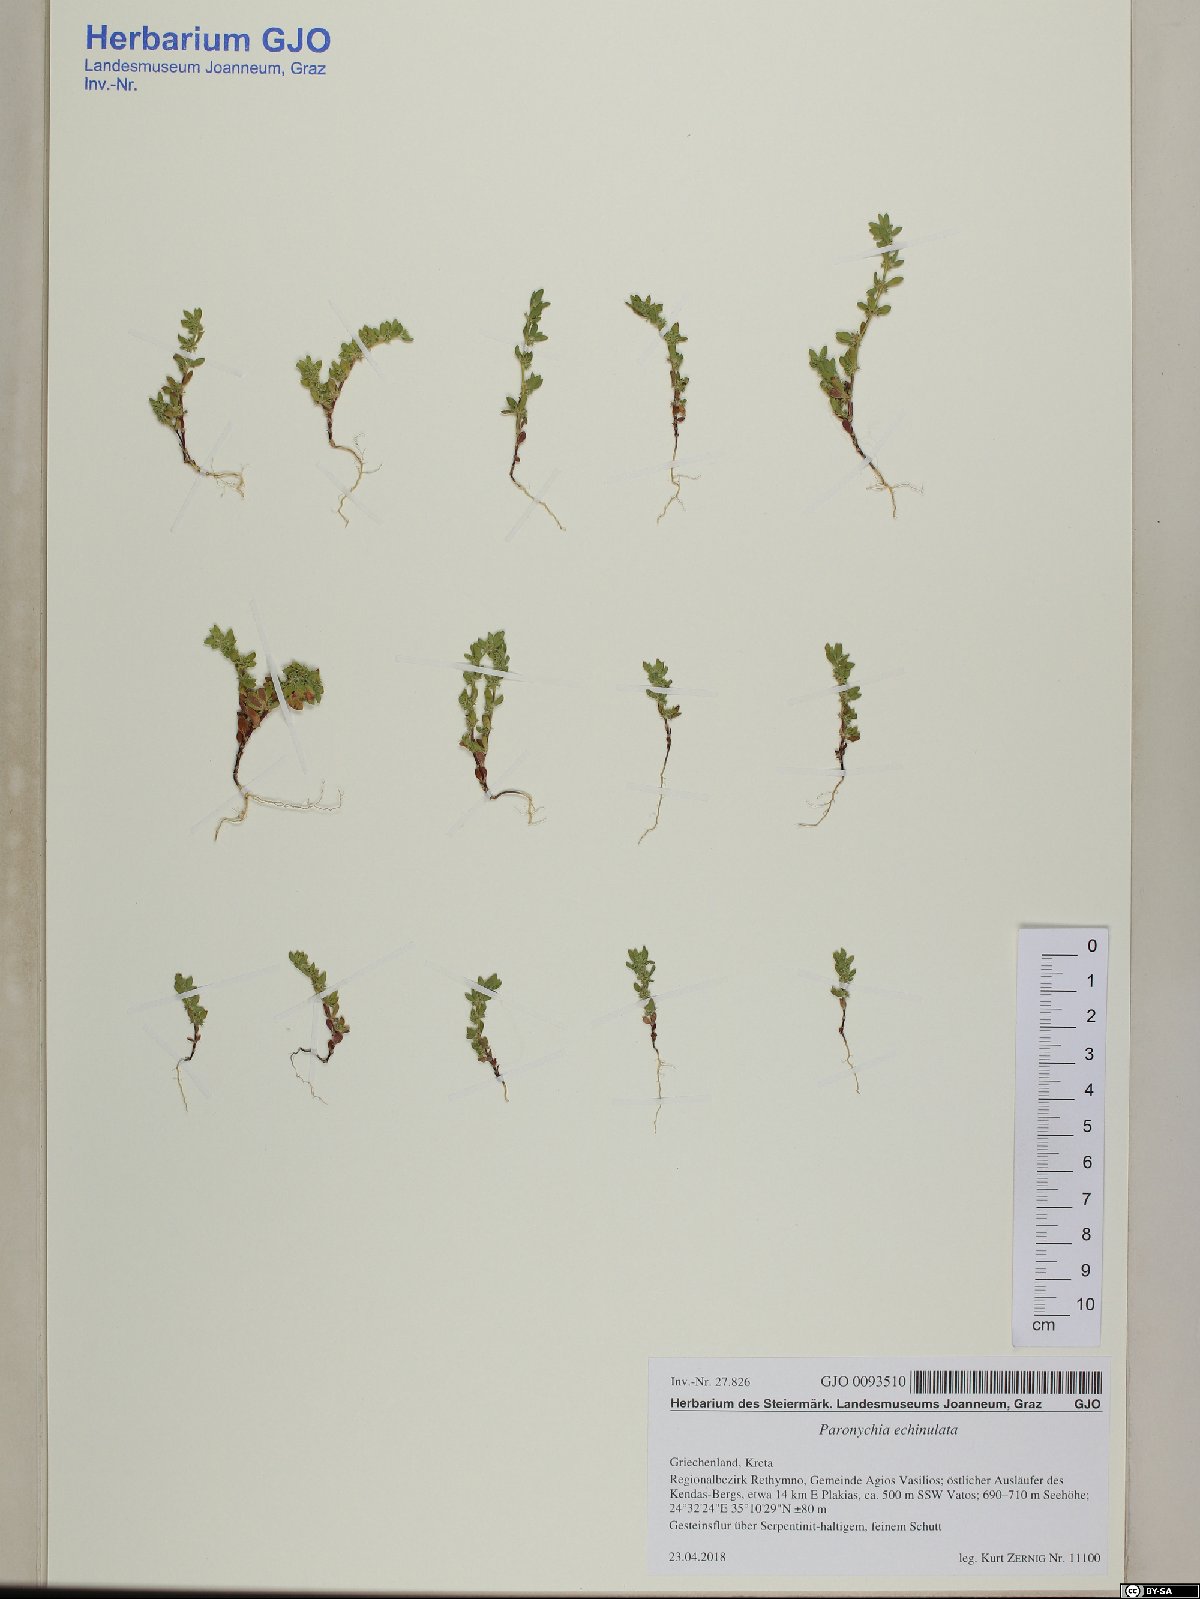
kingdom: Plantae
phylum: Tracheophyta
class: Magnoliopsida
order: Caryophyllales
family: Caryophyllaceae
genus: Paronychia
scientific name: Paronychia echinulata
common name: Eurasian nailwort
